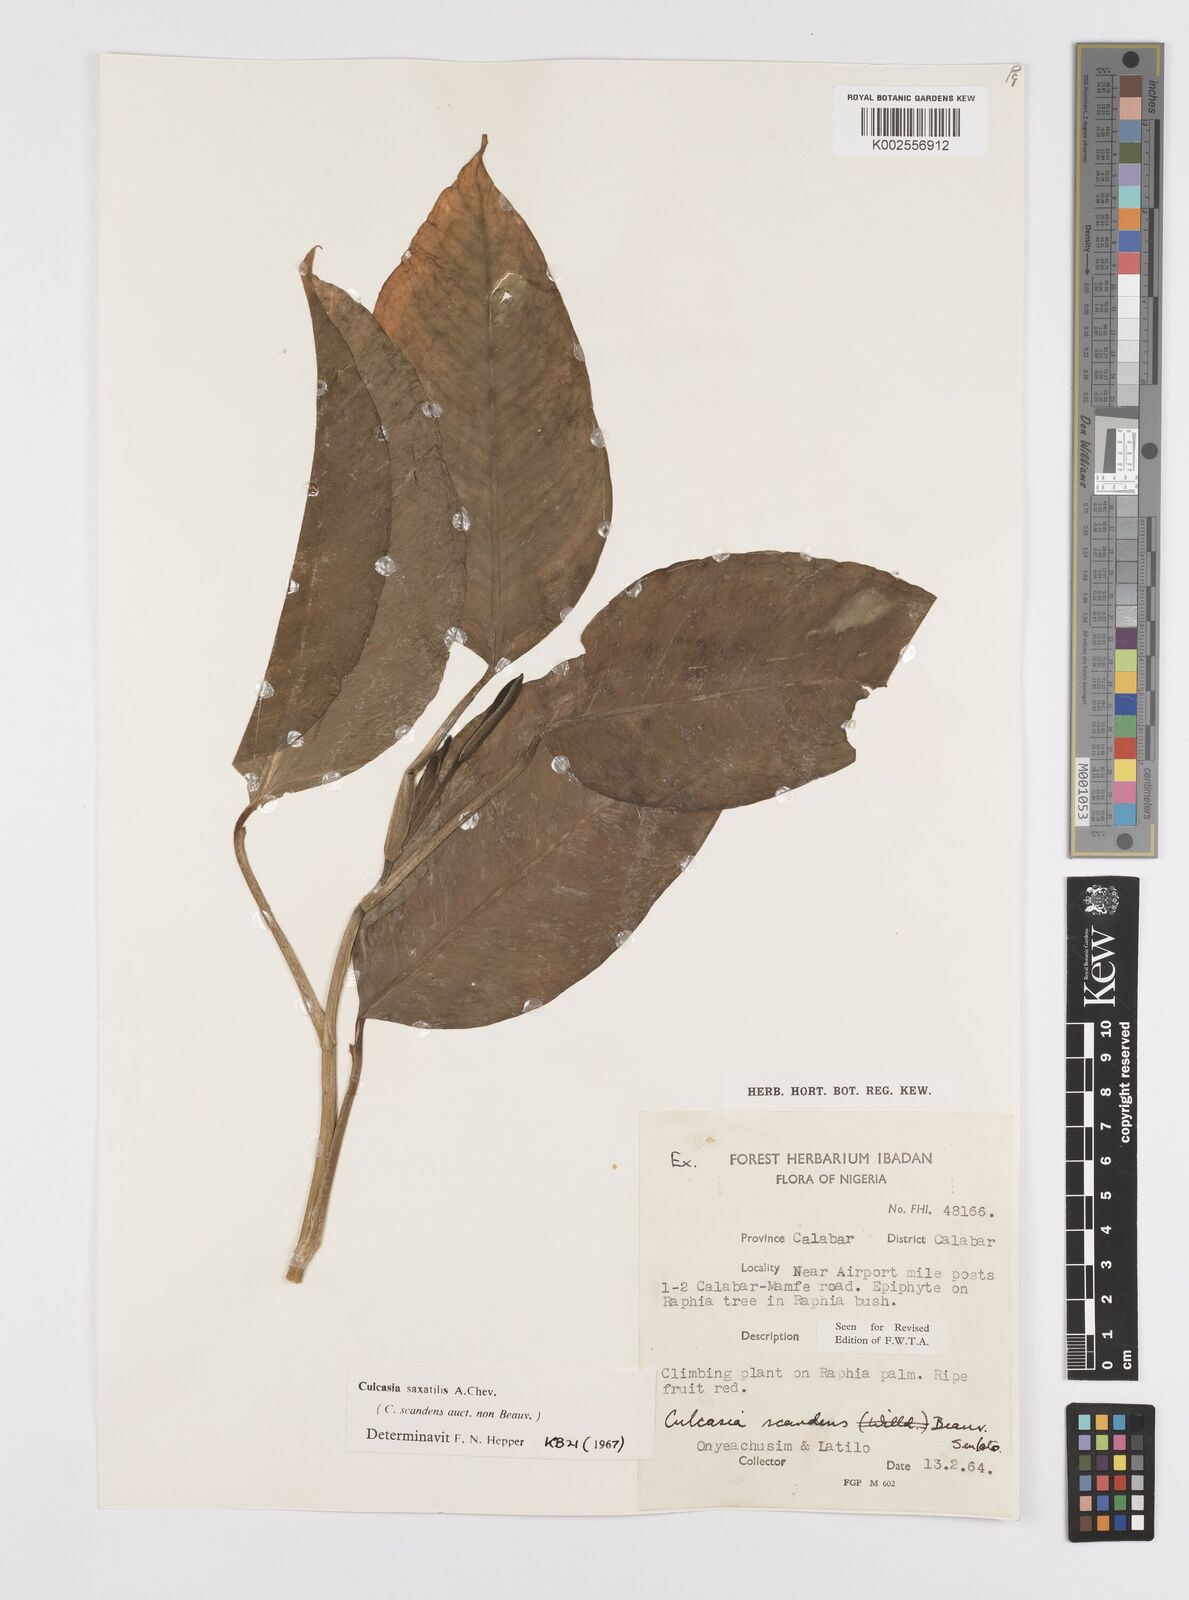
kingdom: Plantae
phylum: Tracheophyta
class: Liliopsida
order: Alismatales
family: Araceae
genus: Culcasia
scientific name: Culcasia scandens
